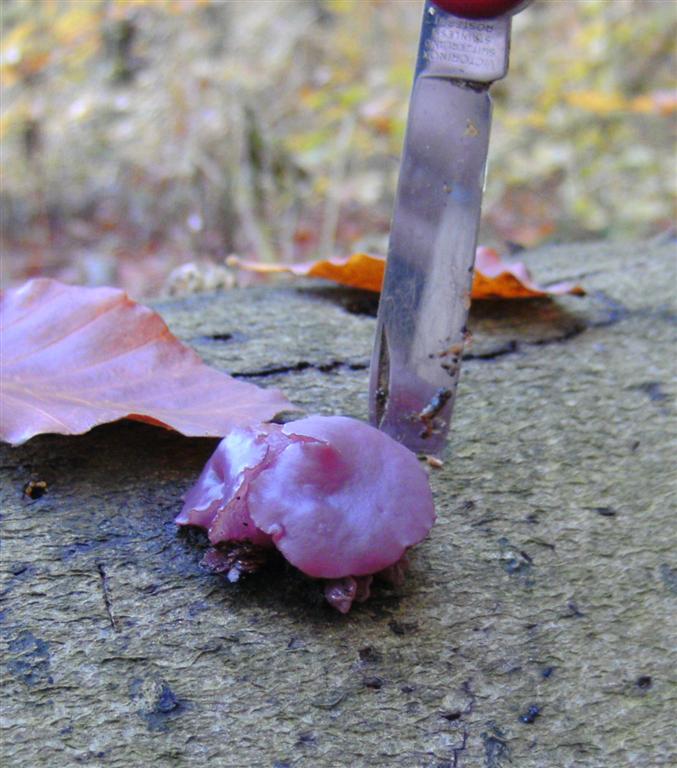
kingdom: Fungi
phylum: Ascomycota
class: Leotiomycetes
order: Helotiales
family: Gelatinodiscaceae
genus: Ascocoryne
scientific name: Ascocoryne cylichnium
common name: stor sejskive
